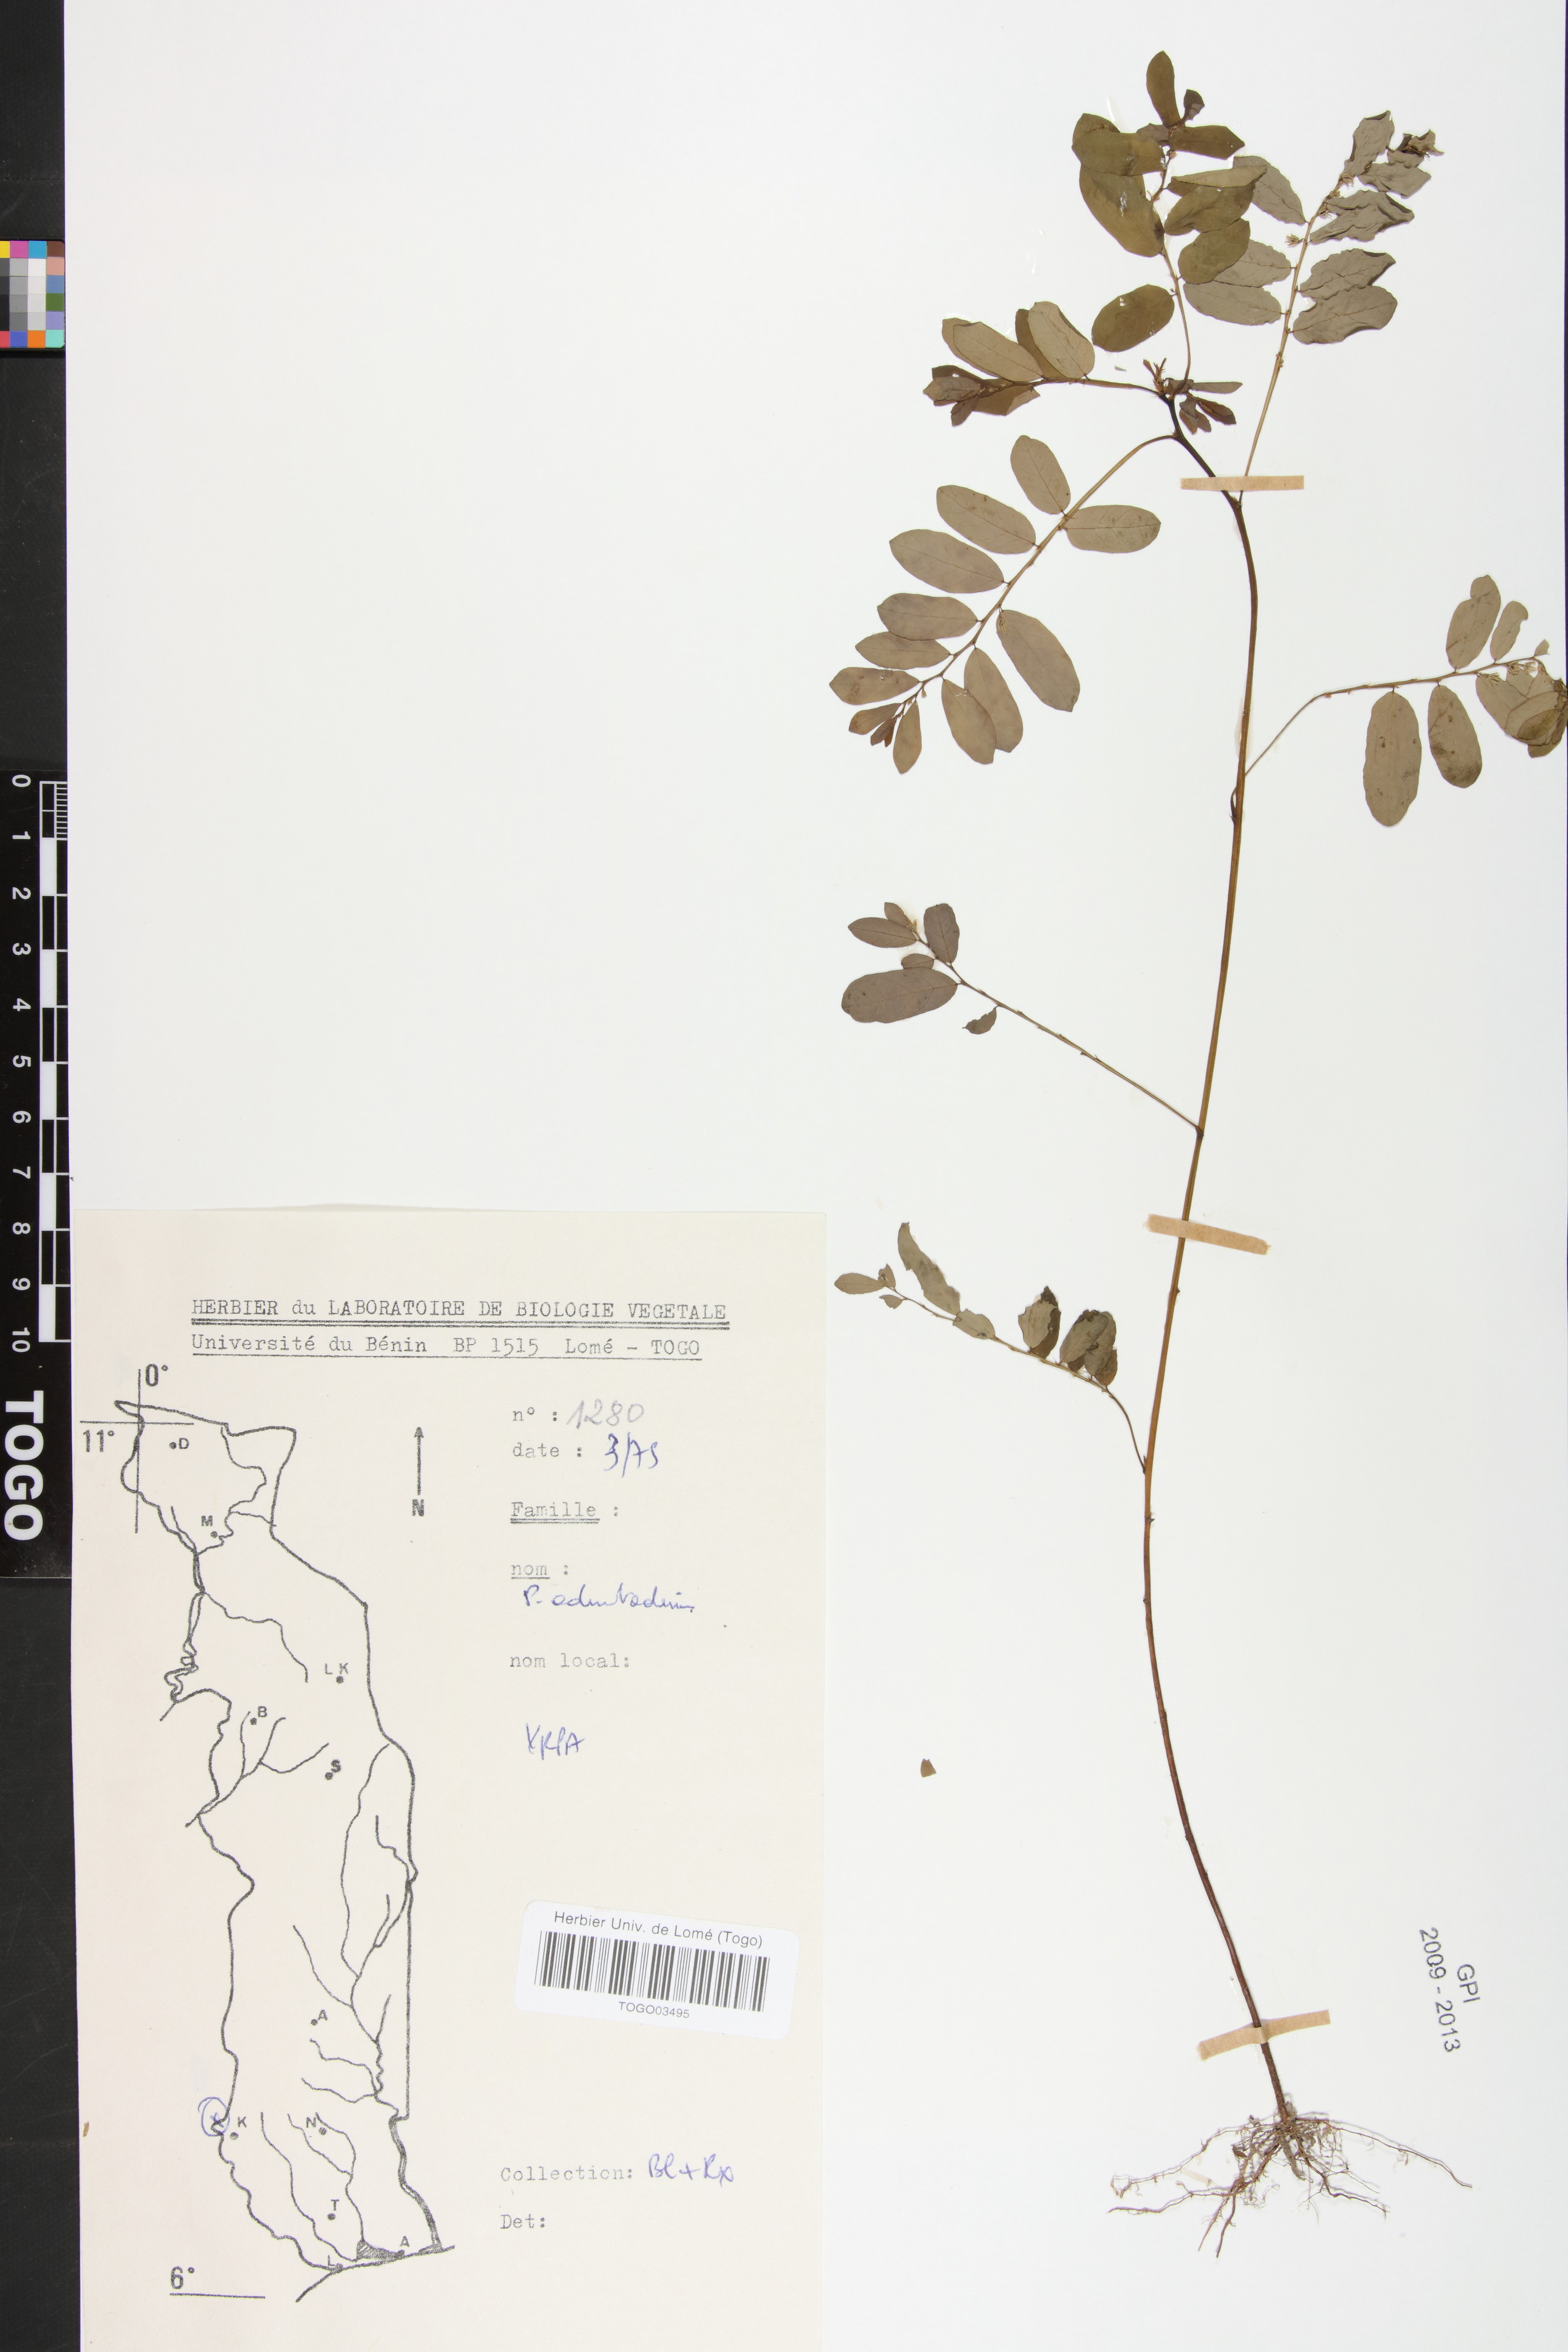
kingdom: Plantae
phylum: Tracheophyta
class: Magnoliopsida
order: Malpighiales
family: Phyllanthaceae
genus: Phyllanthus
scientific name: Phyllanthus odontadenius
